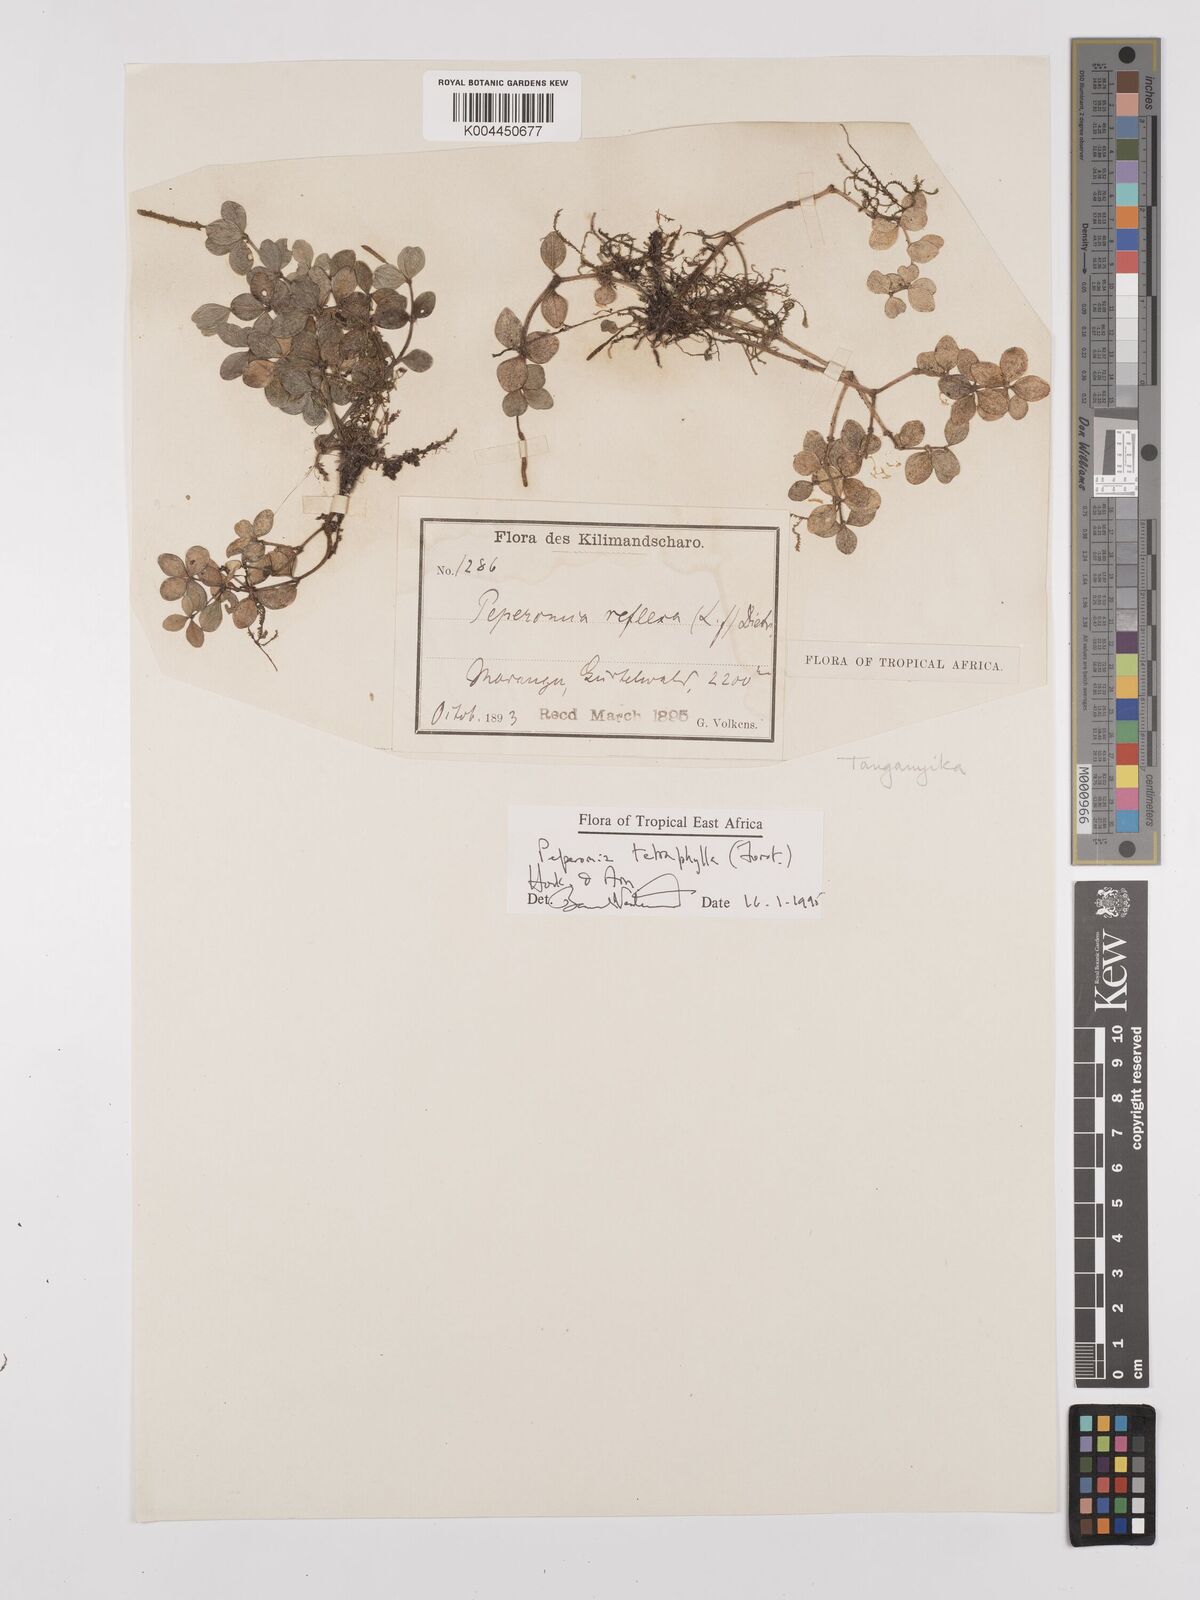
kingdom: Plantae
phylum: Tracheophyta
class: Magnoliopsida
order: Piperales
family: Piperaceae
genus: Peperomia
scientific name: Peperomia tetraphylla
